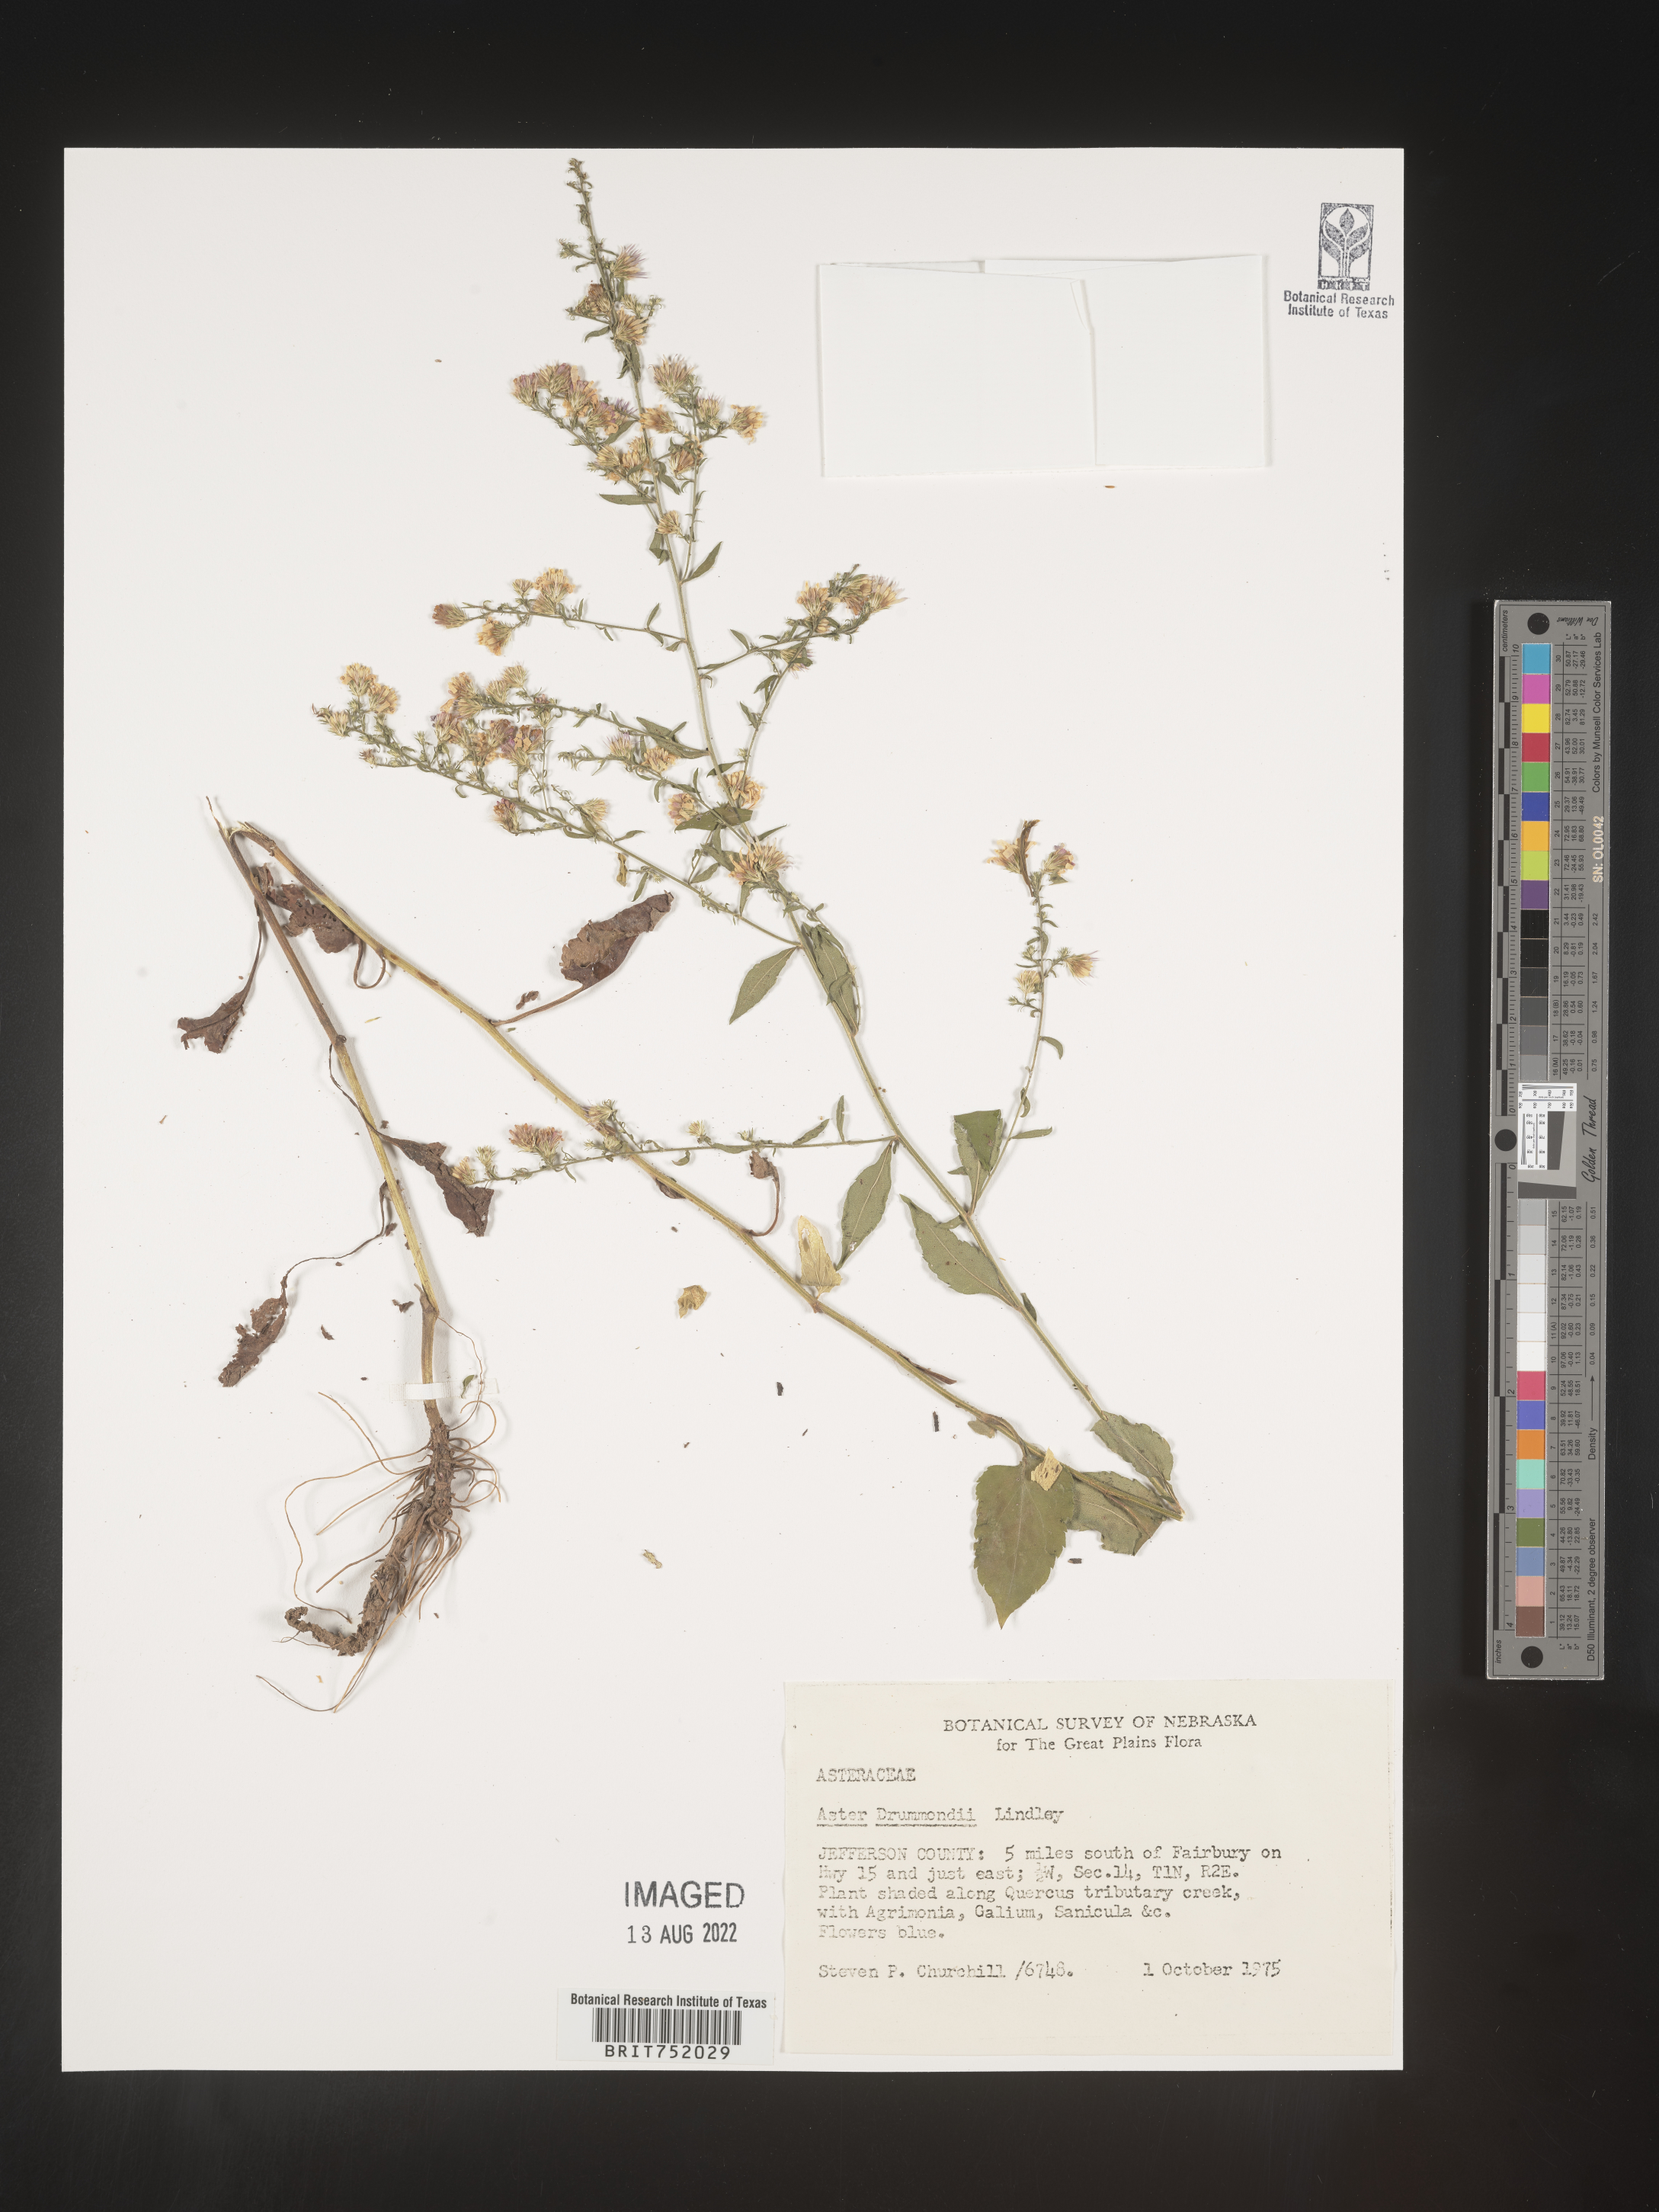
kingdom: Plantae
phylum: Tracheophyta
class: Magnoliopsida
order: Asterales
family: Asteraceae
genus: Symphyotrichum
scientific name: Symphyotrichum drummondii
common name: Drummond's aster
